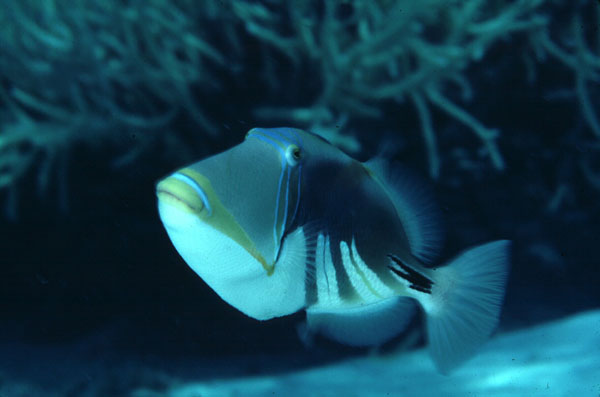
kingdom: Animalia
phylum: Chordata
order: Tetraodontiformes
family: Balistidae
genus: Rhinecanthus
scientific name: Rhinecanthus aculeatus
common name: White-banded triggerfish
